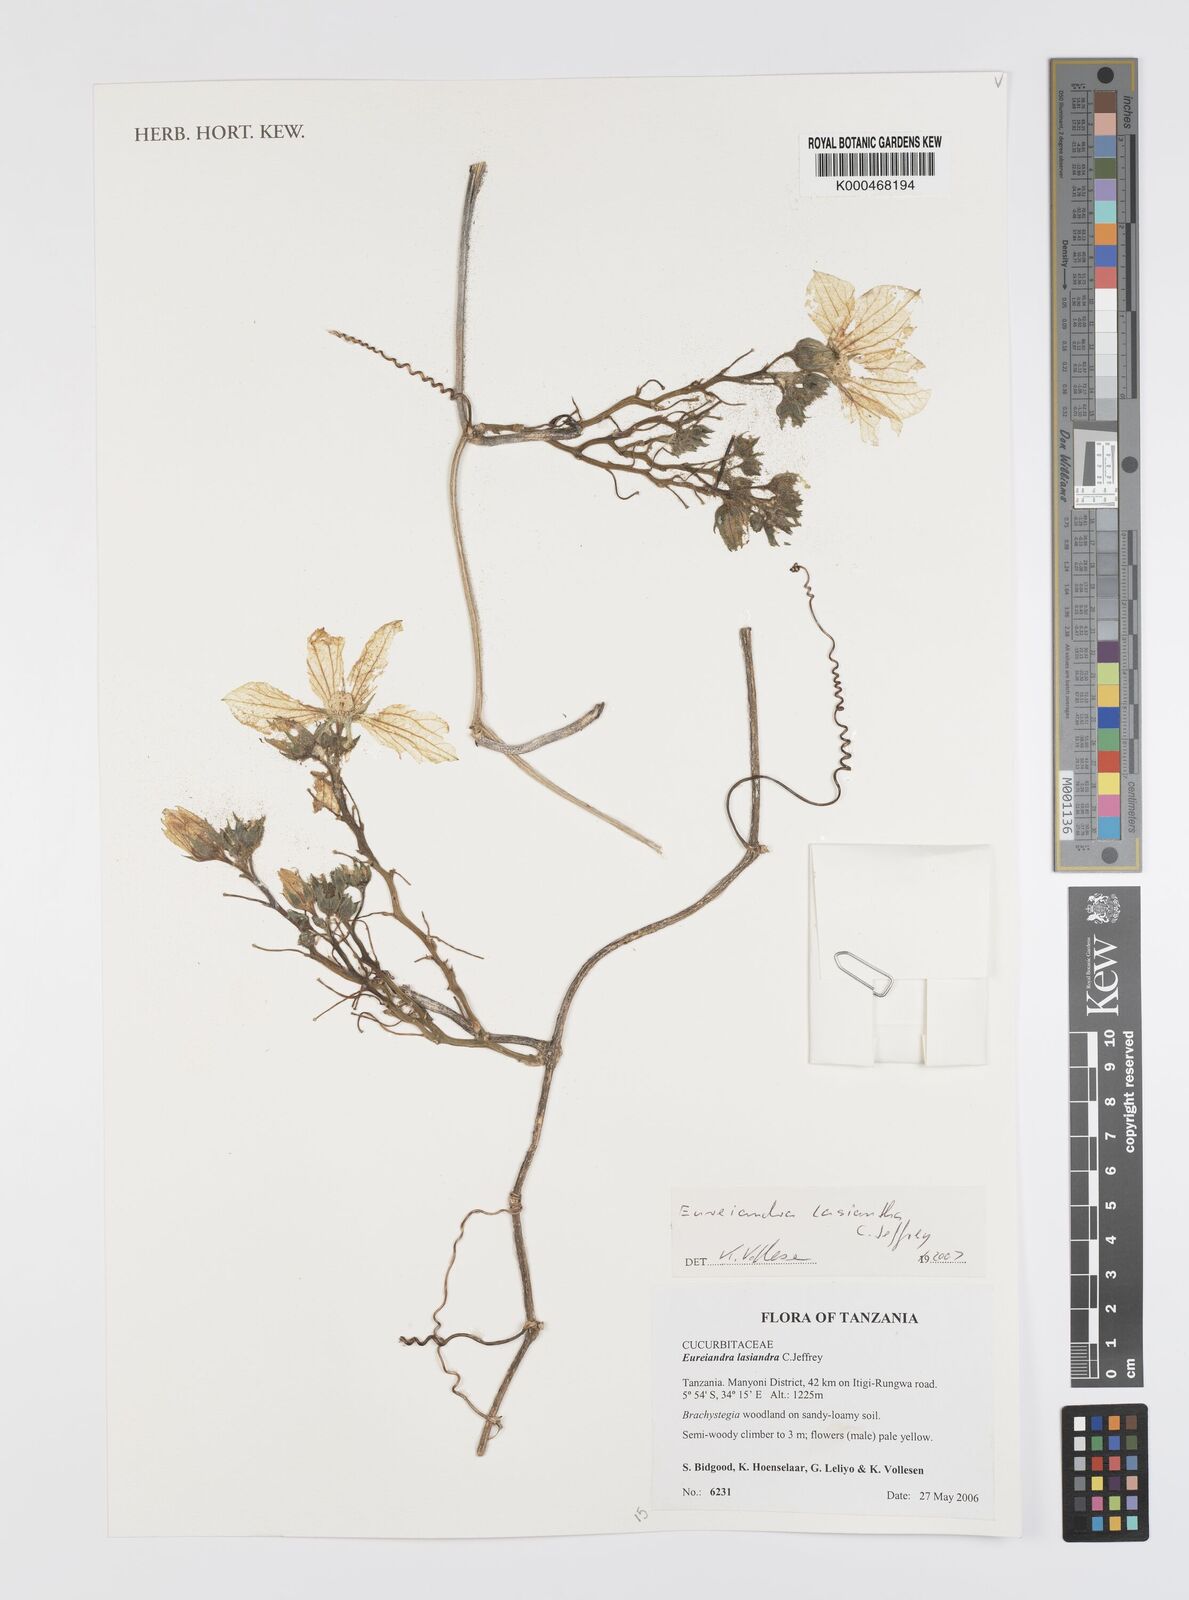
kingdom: Plantae
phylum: Tracheophyta
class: Magnoliopsida
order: Cucurbitales
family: Cucurbitaceae
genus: Eureiandra
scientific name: Eureiandra lasiandra
